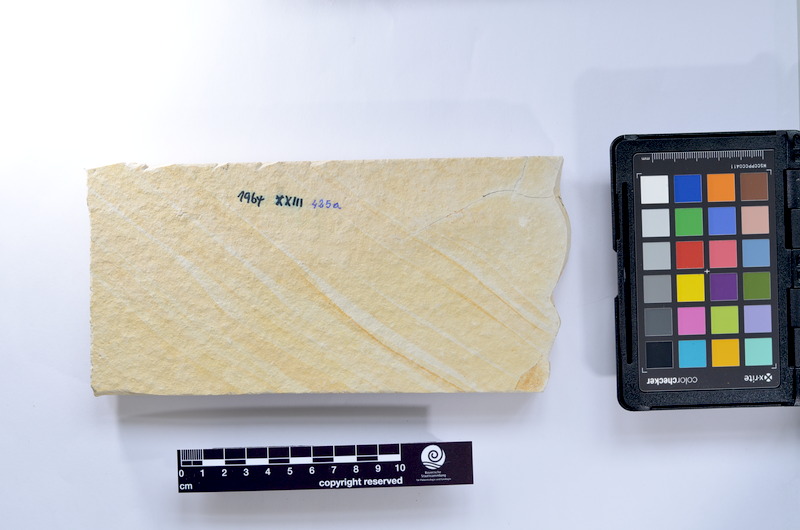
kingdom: Animalia
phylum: Chordata
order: Elopiformes
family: Anaethalionidae
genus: Anaethalion
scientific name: Anaethalion knorri
